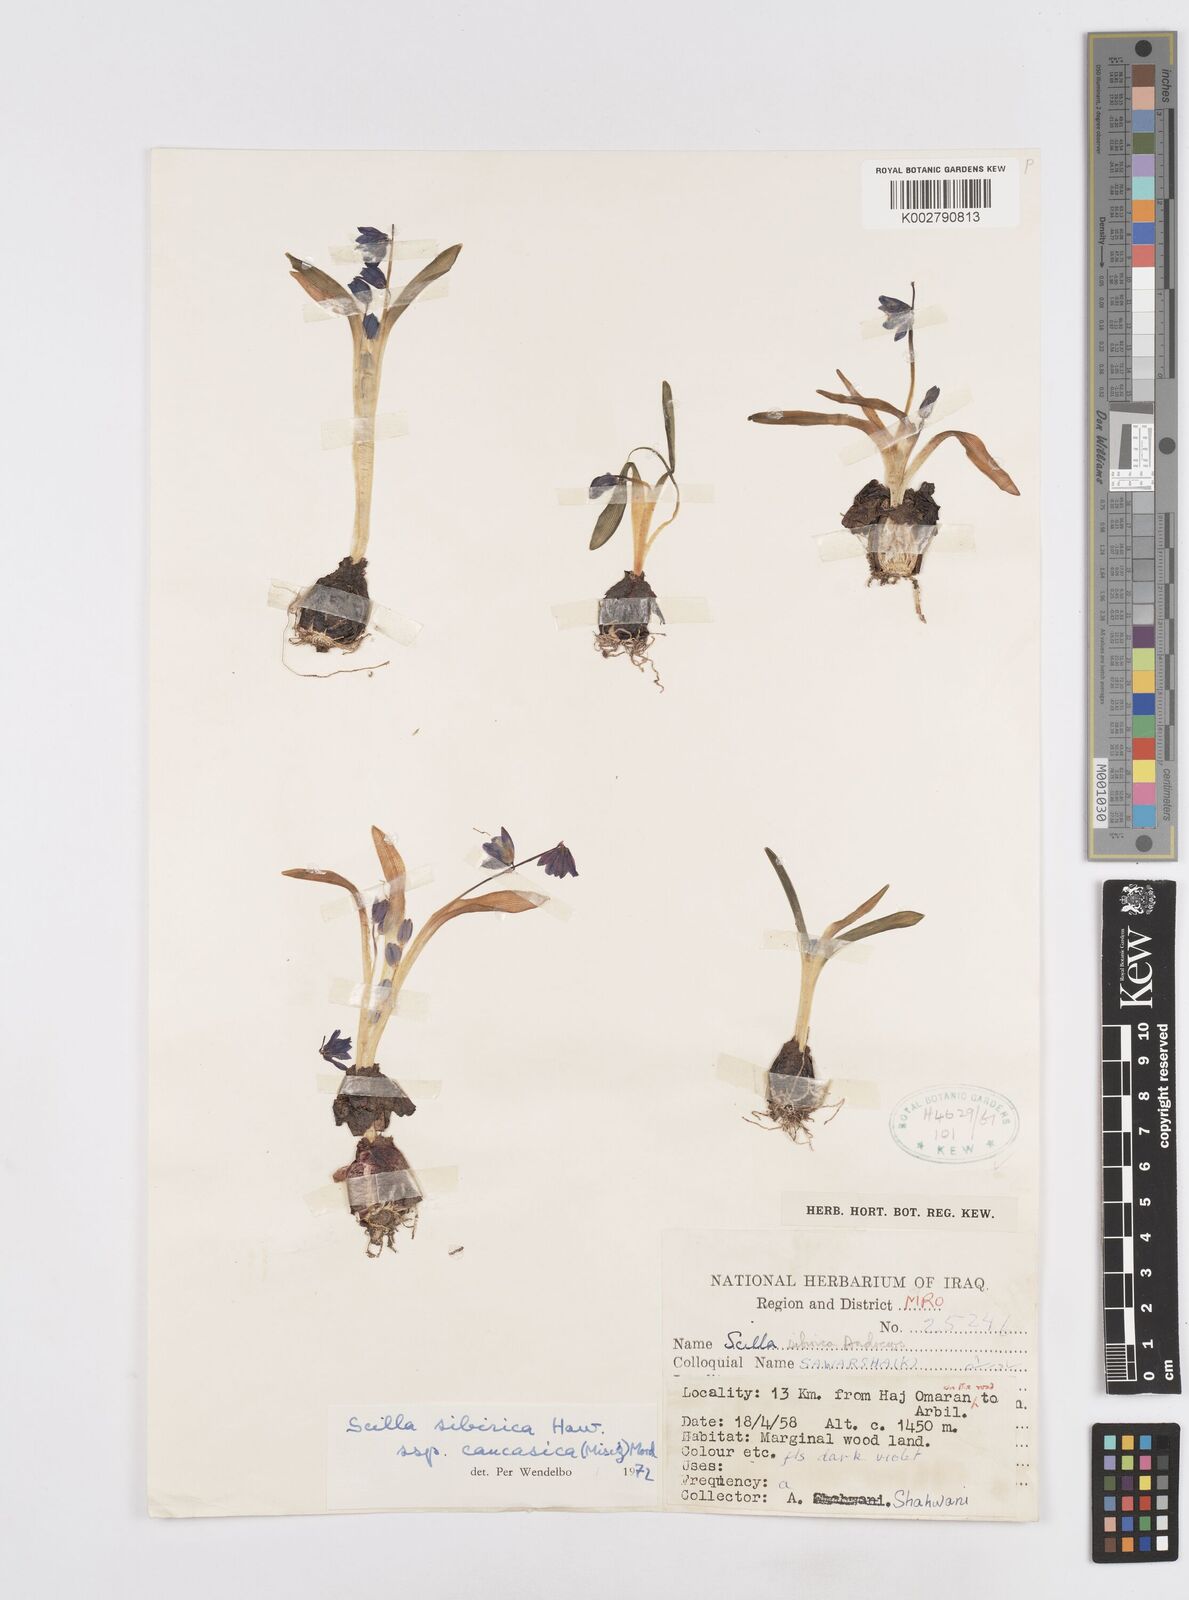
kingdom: Plantae
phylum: Tracheophyta
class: Liliopsida
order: Asparagales
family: Asparagaceae
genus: Scilla
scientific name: Scilla siberica
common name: Siberian squill
